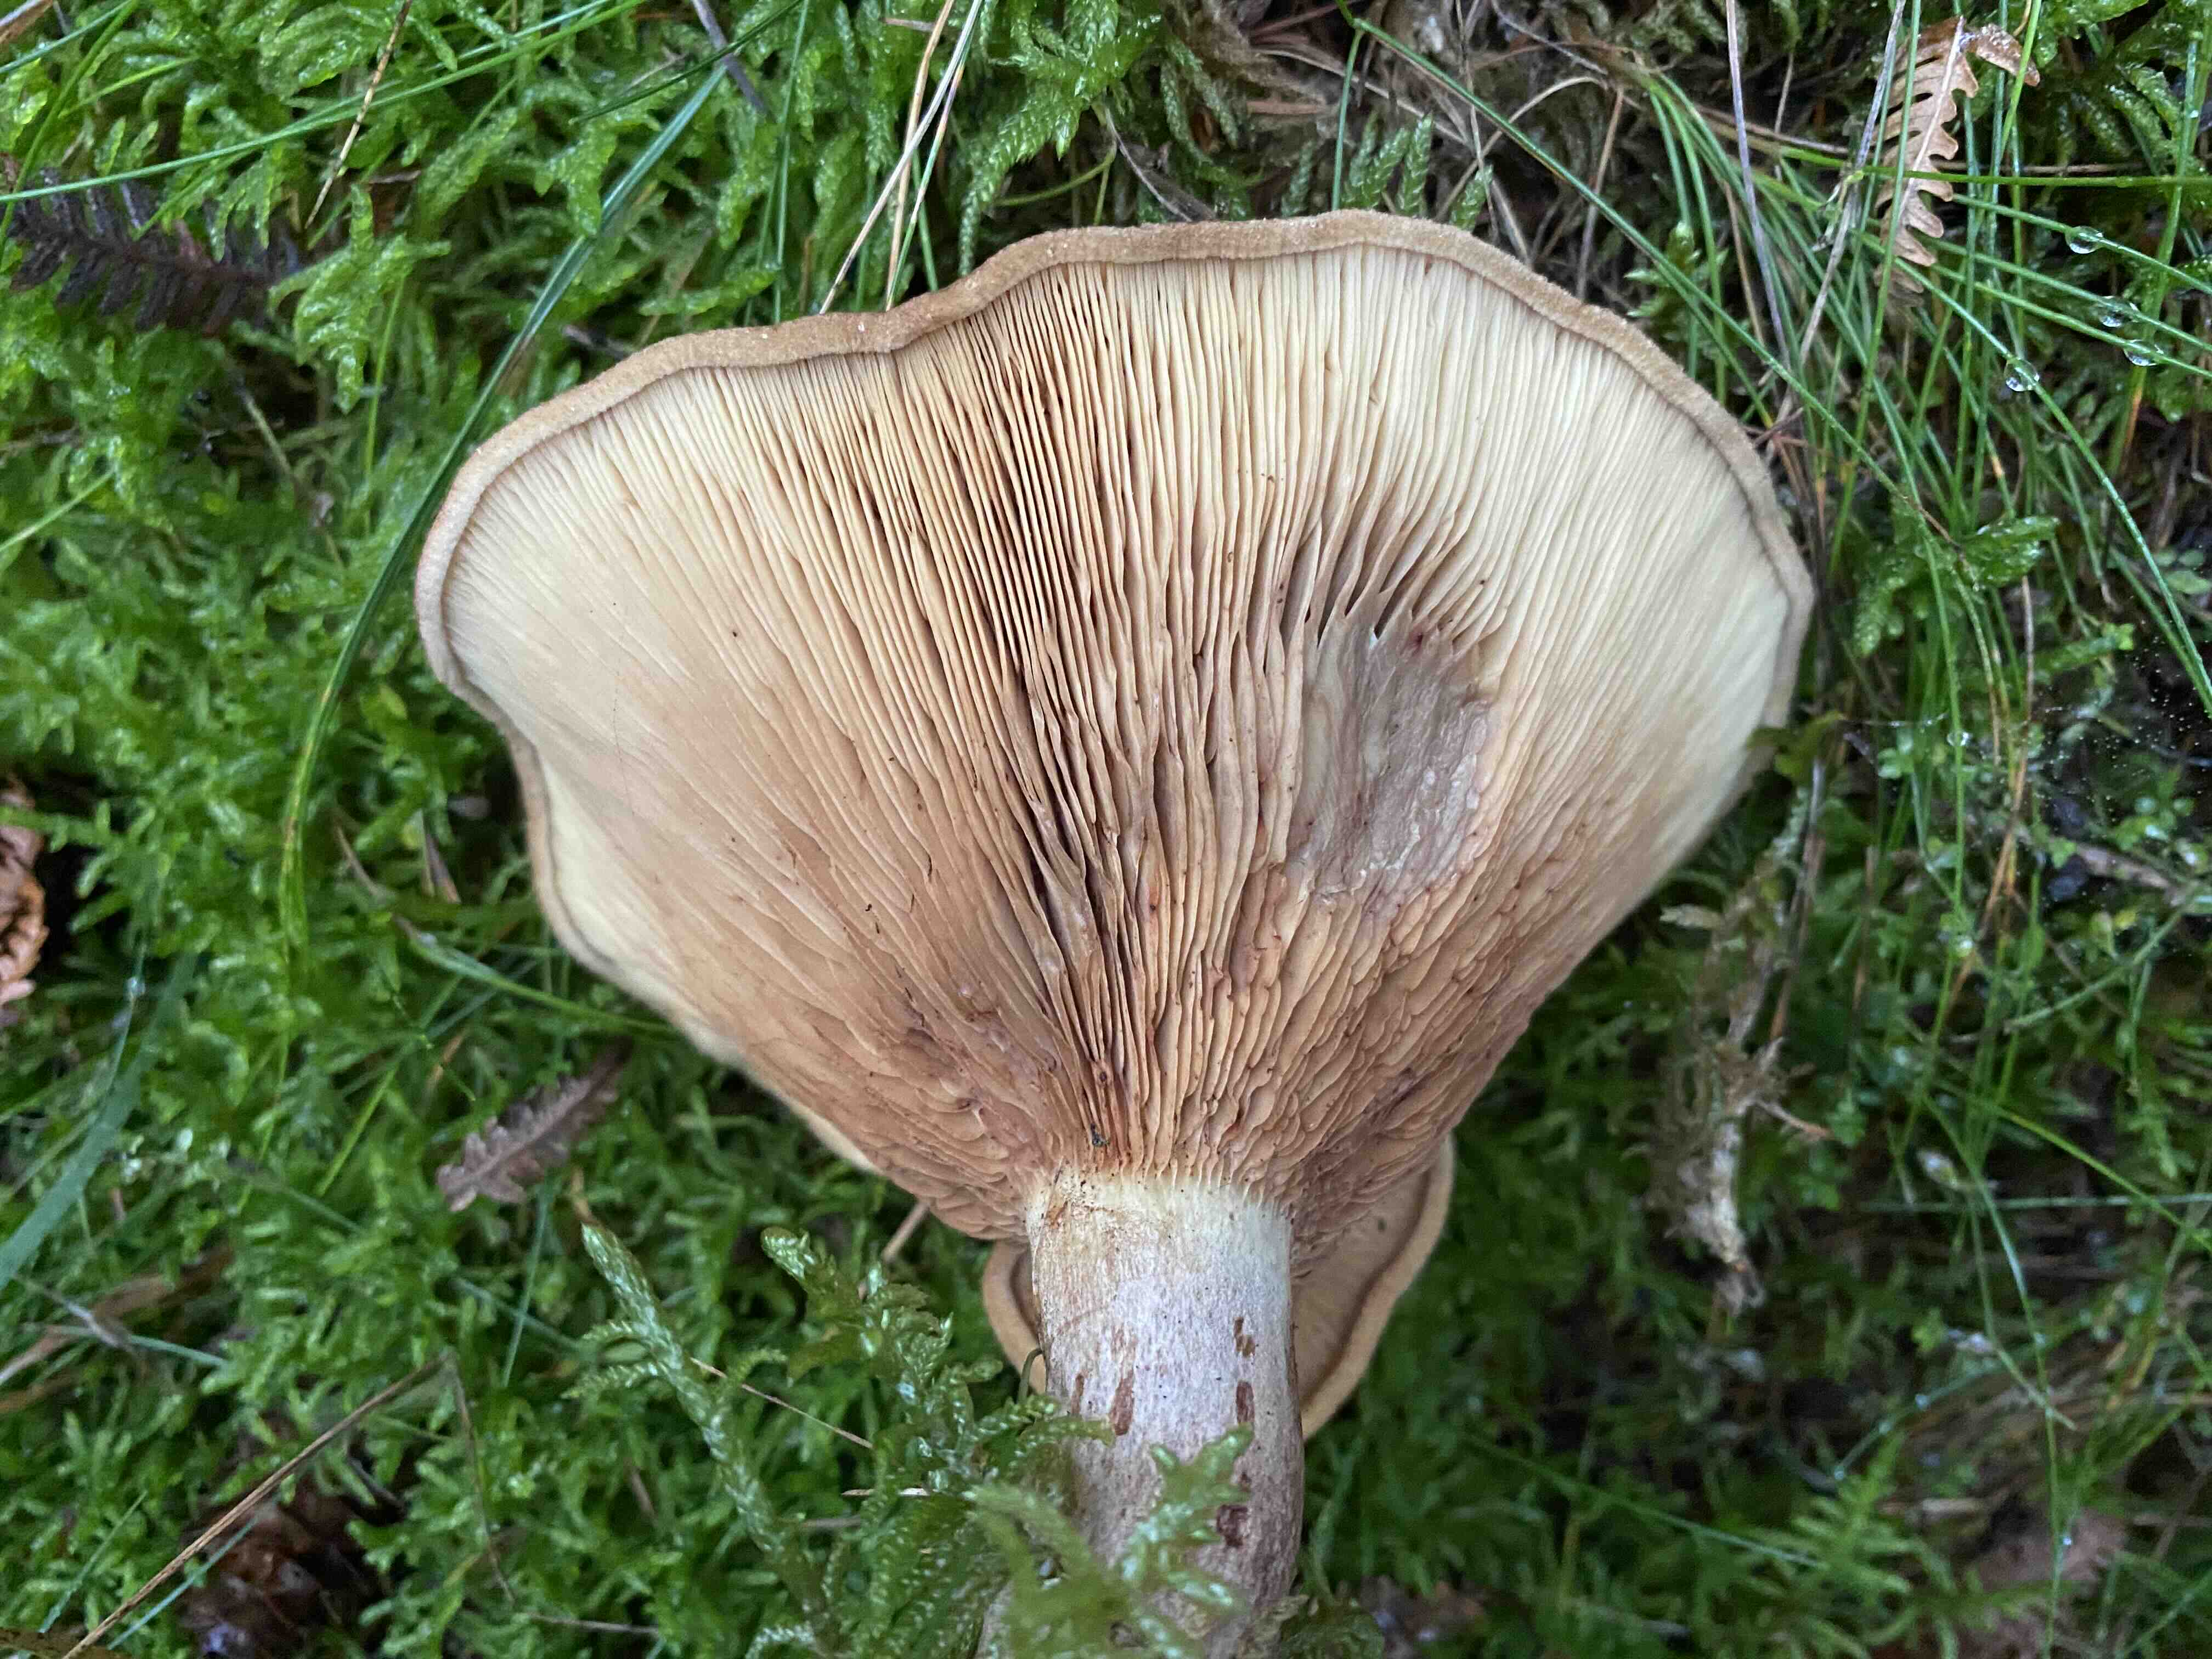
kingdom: Fungi
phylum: Basidiomycota
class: Agaricomycetes
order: Boletales
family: Paxillaceae
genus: Paxillus
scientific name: Paxillus involutus
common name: almindelig netbladhat
